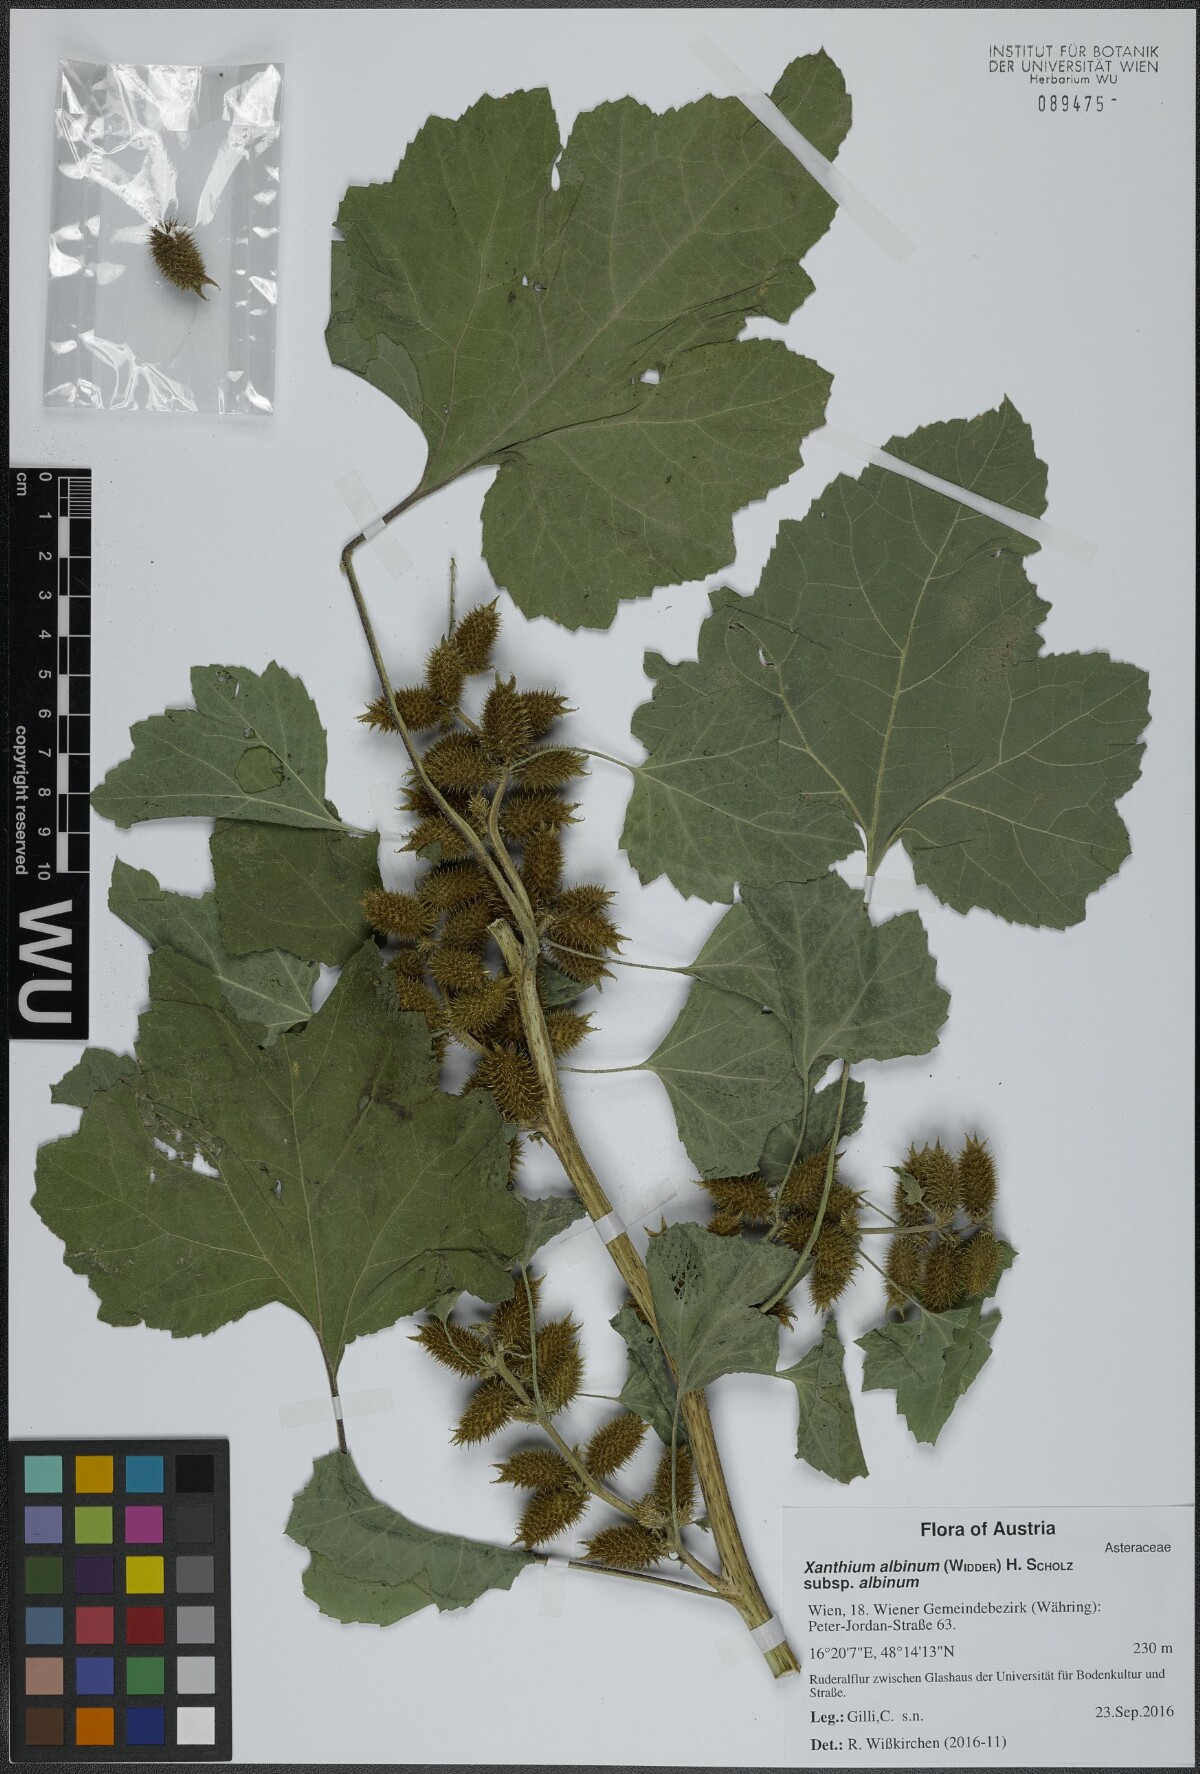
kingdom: Plantae
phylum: Tracheophyta
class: Magnoliopsida
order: Asterales
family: Asteraceae
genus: Xanthium
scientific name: Xanthium orientale
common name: Californian burr
